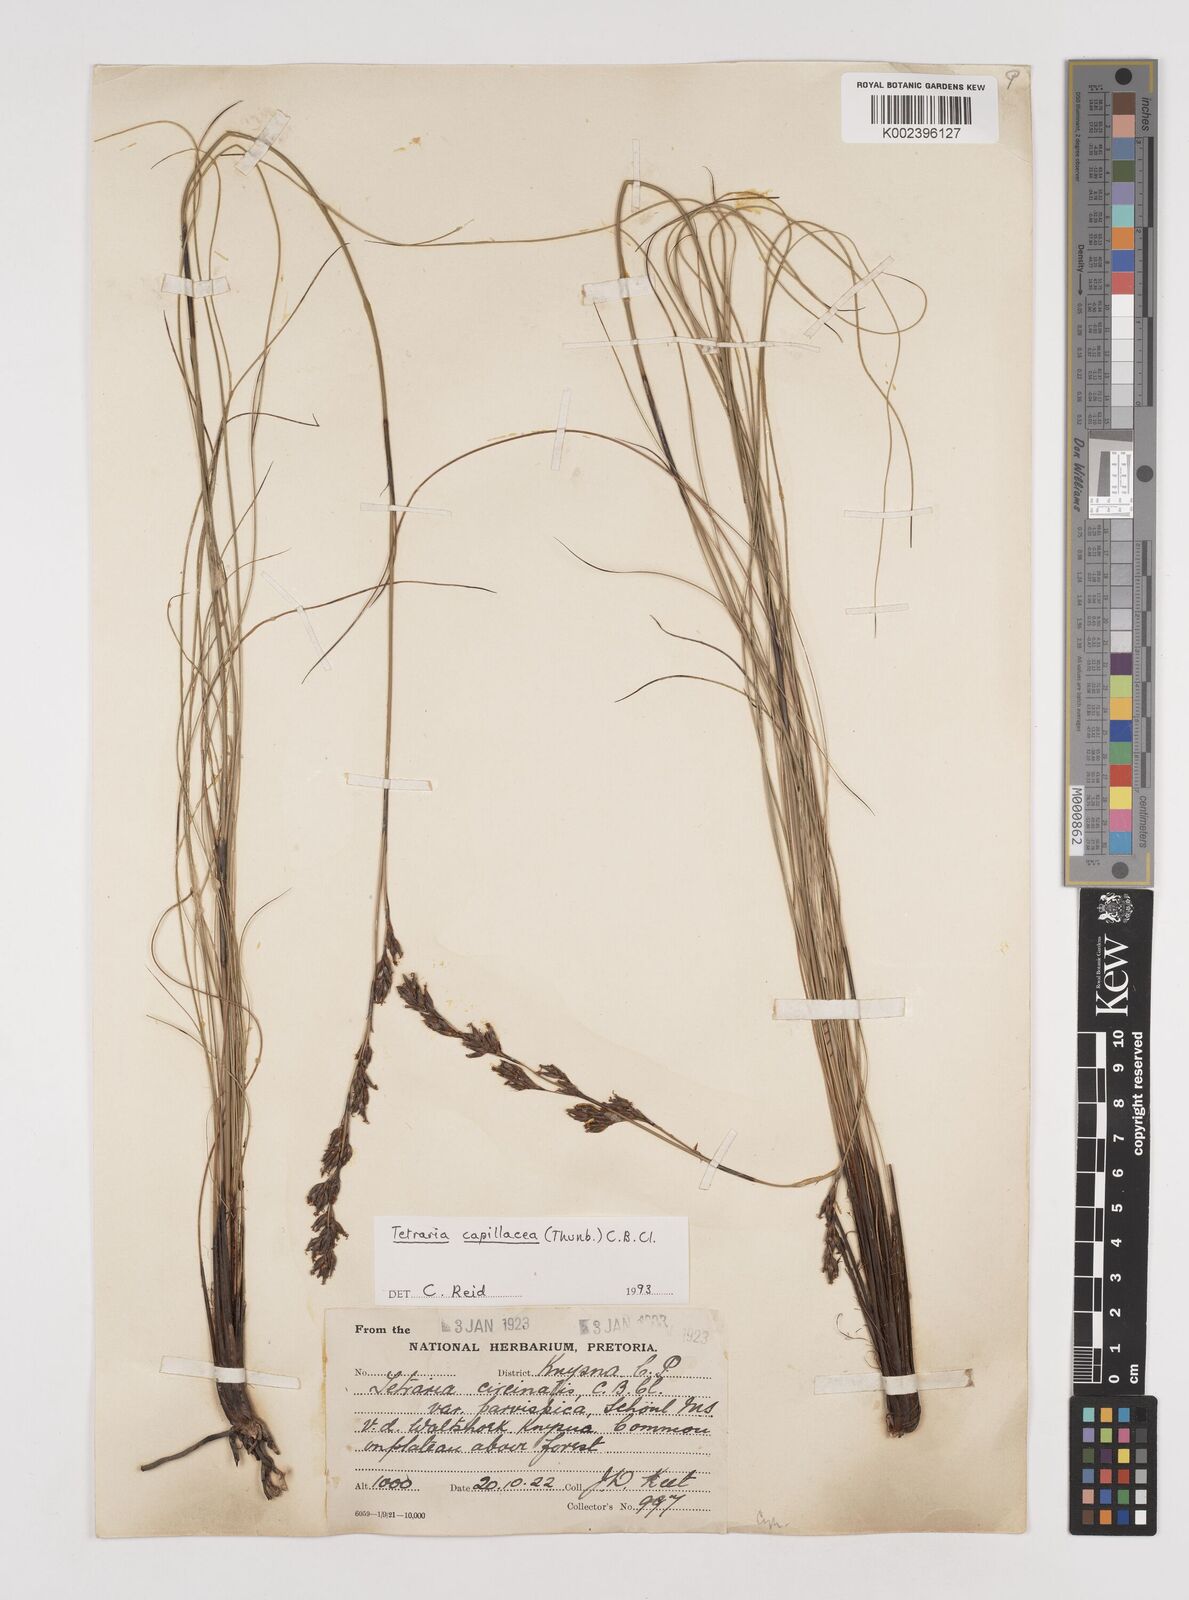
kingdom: Plantae
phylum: Tracheophyta
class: Liliopsida
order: Poales
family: Cyperaceae
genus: Tetraria
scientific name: Tetraria capillacea
